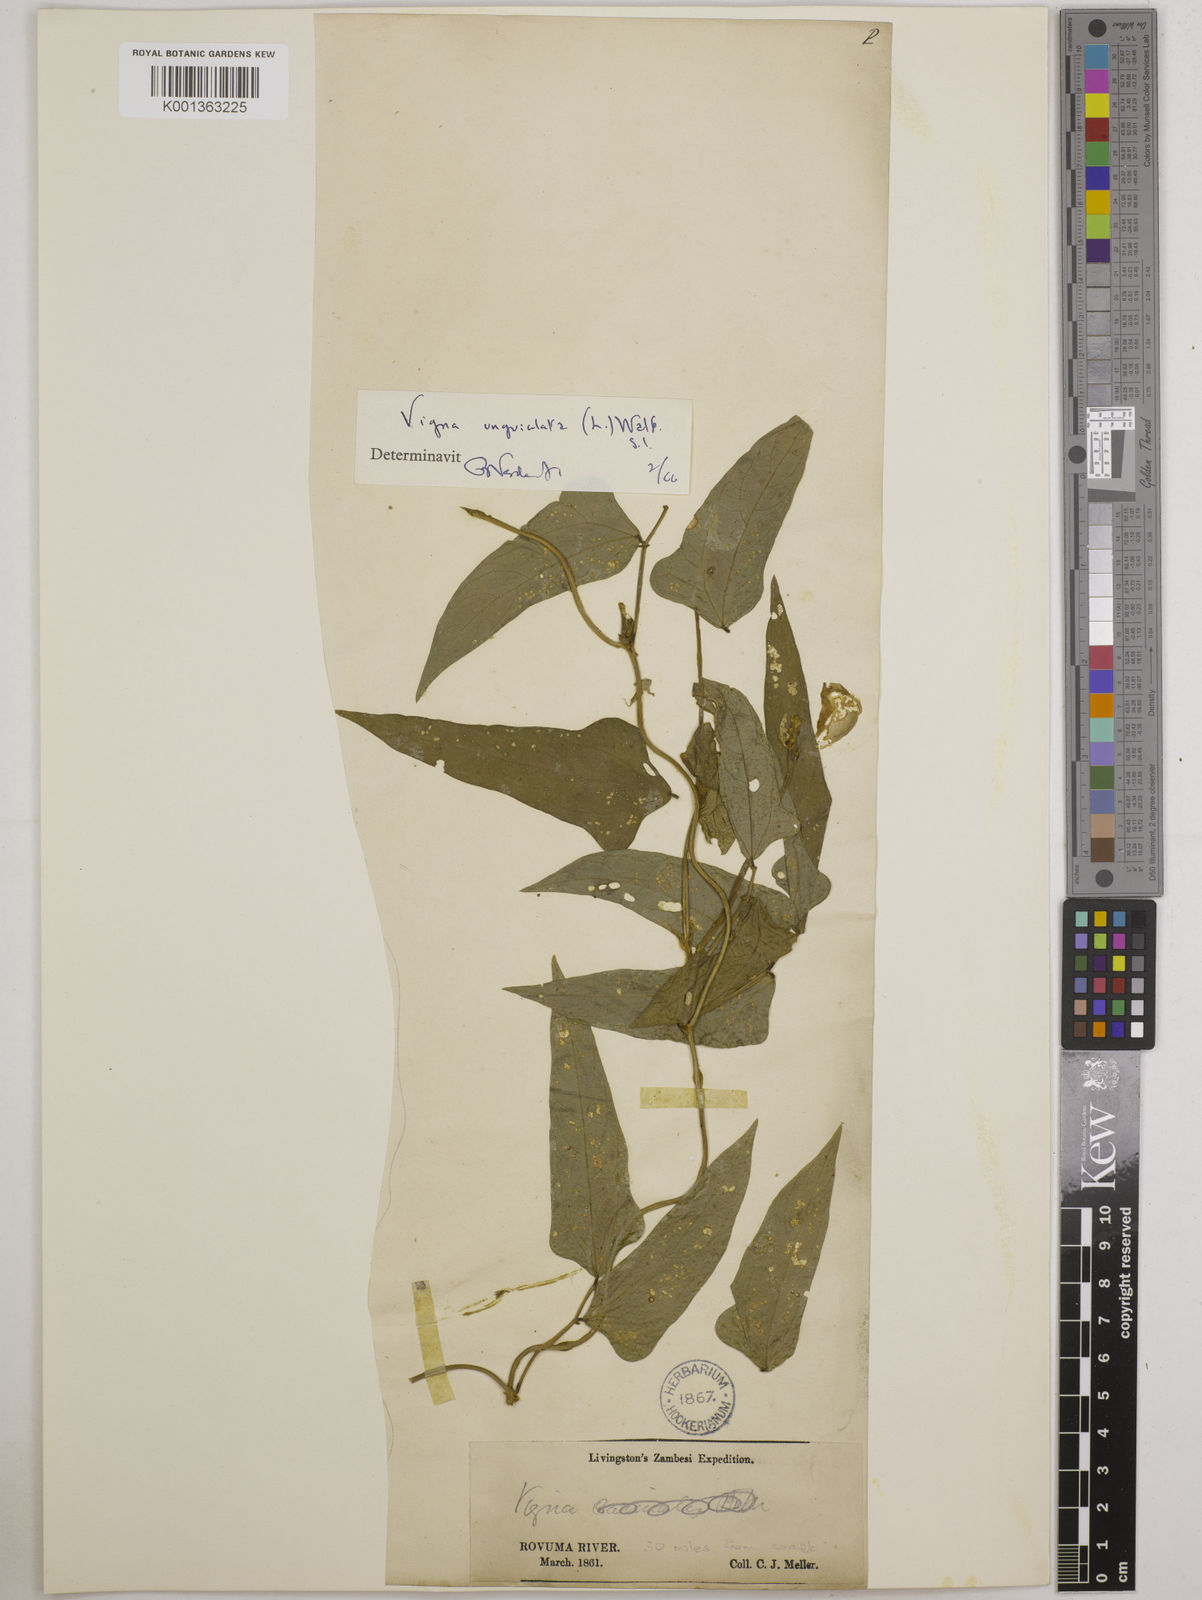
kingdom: Plantae
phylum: Tracheophyta
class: Magnoliopsida
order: Fabales
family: Fabaceae
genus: Vigna
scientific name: Vigna unguiculata
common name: Cowpea
